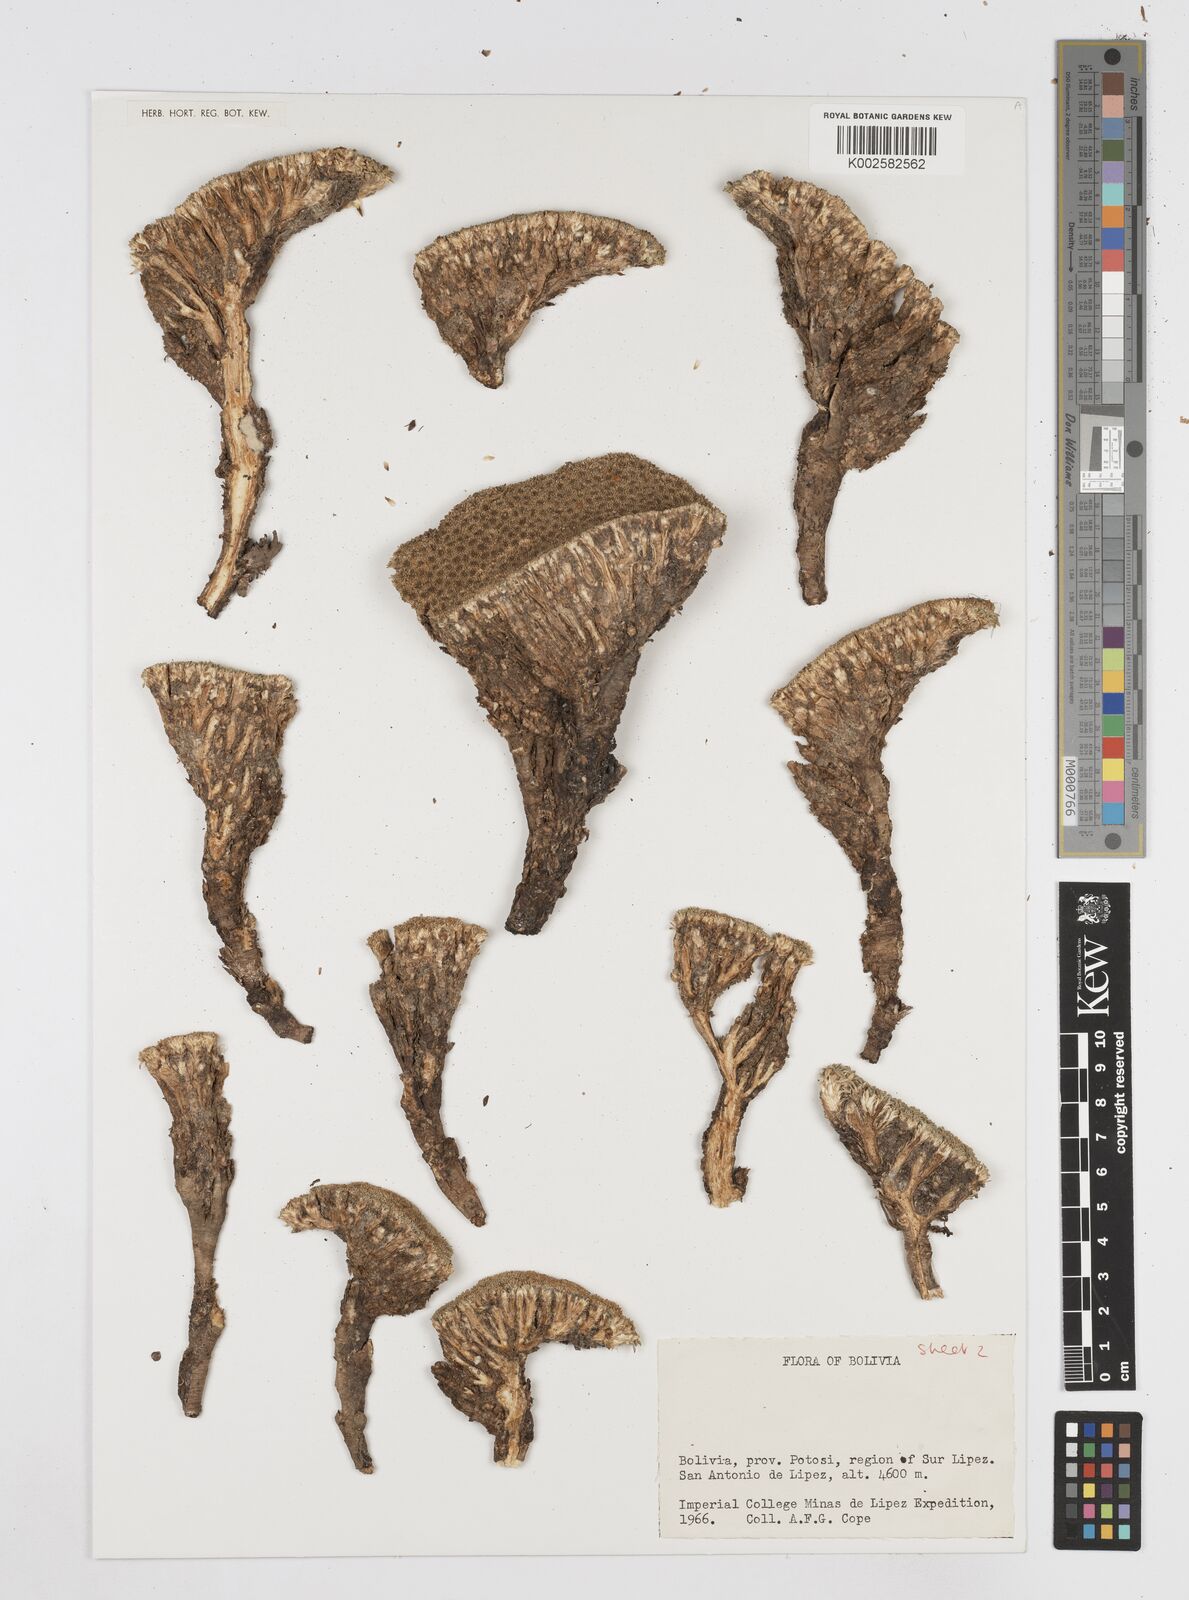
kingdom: Plantae
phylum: Tracheophyta
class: Magnoliopsida
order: Apiales
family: Apiaceae
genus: Azorella
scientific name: Azorella
